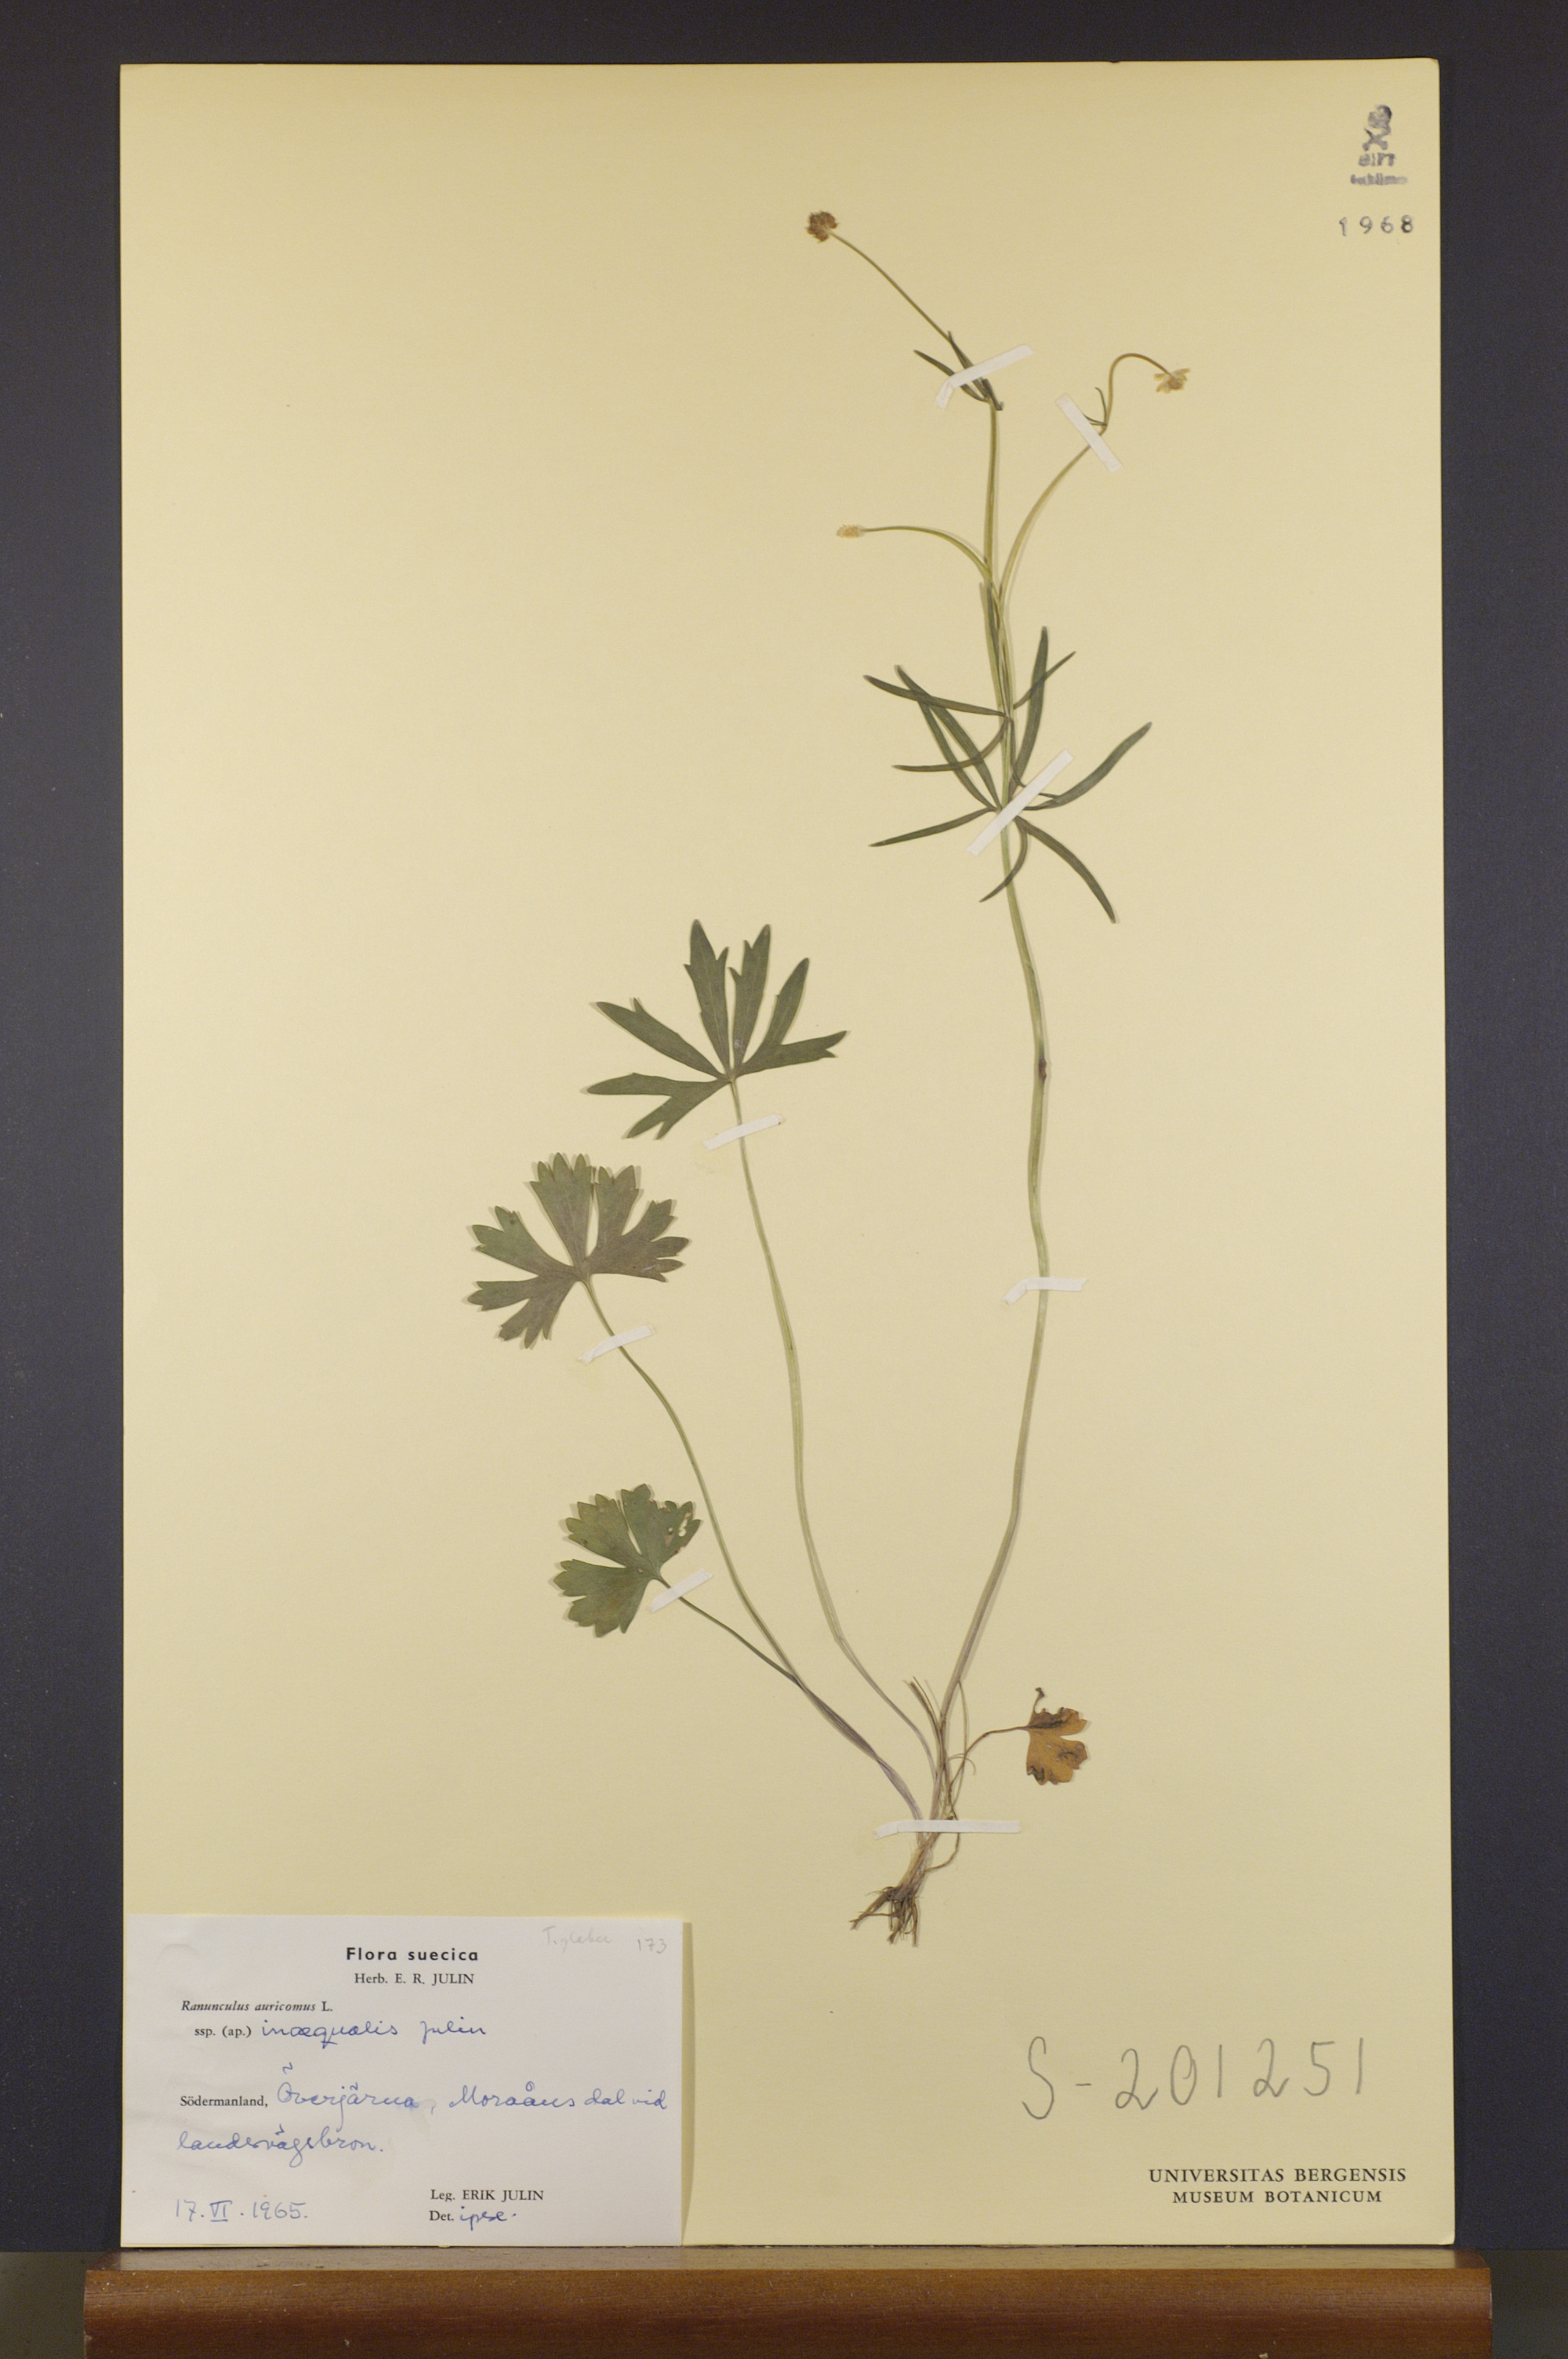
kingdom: Plantae
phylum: Tracheophyta
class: Magnoliopsida
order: Ranunculales
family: Ranunculaceae
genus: Ranunculus
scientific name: Ranunculus inaequalis
